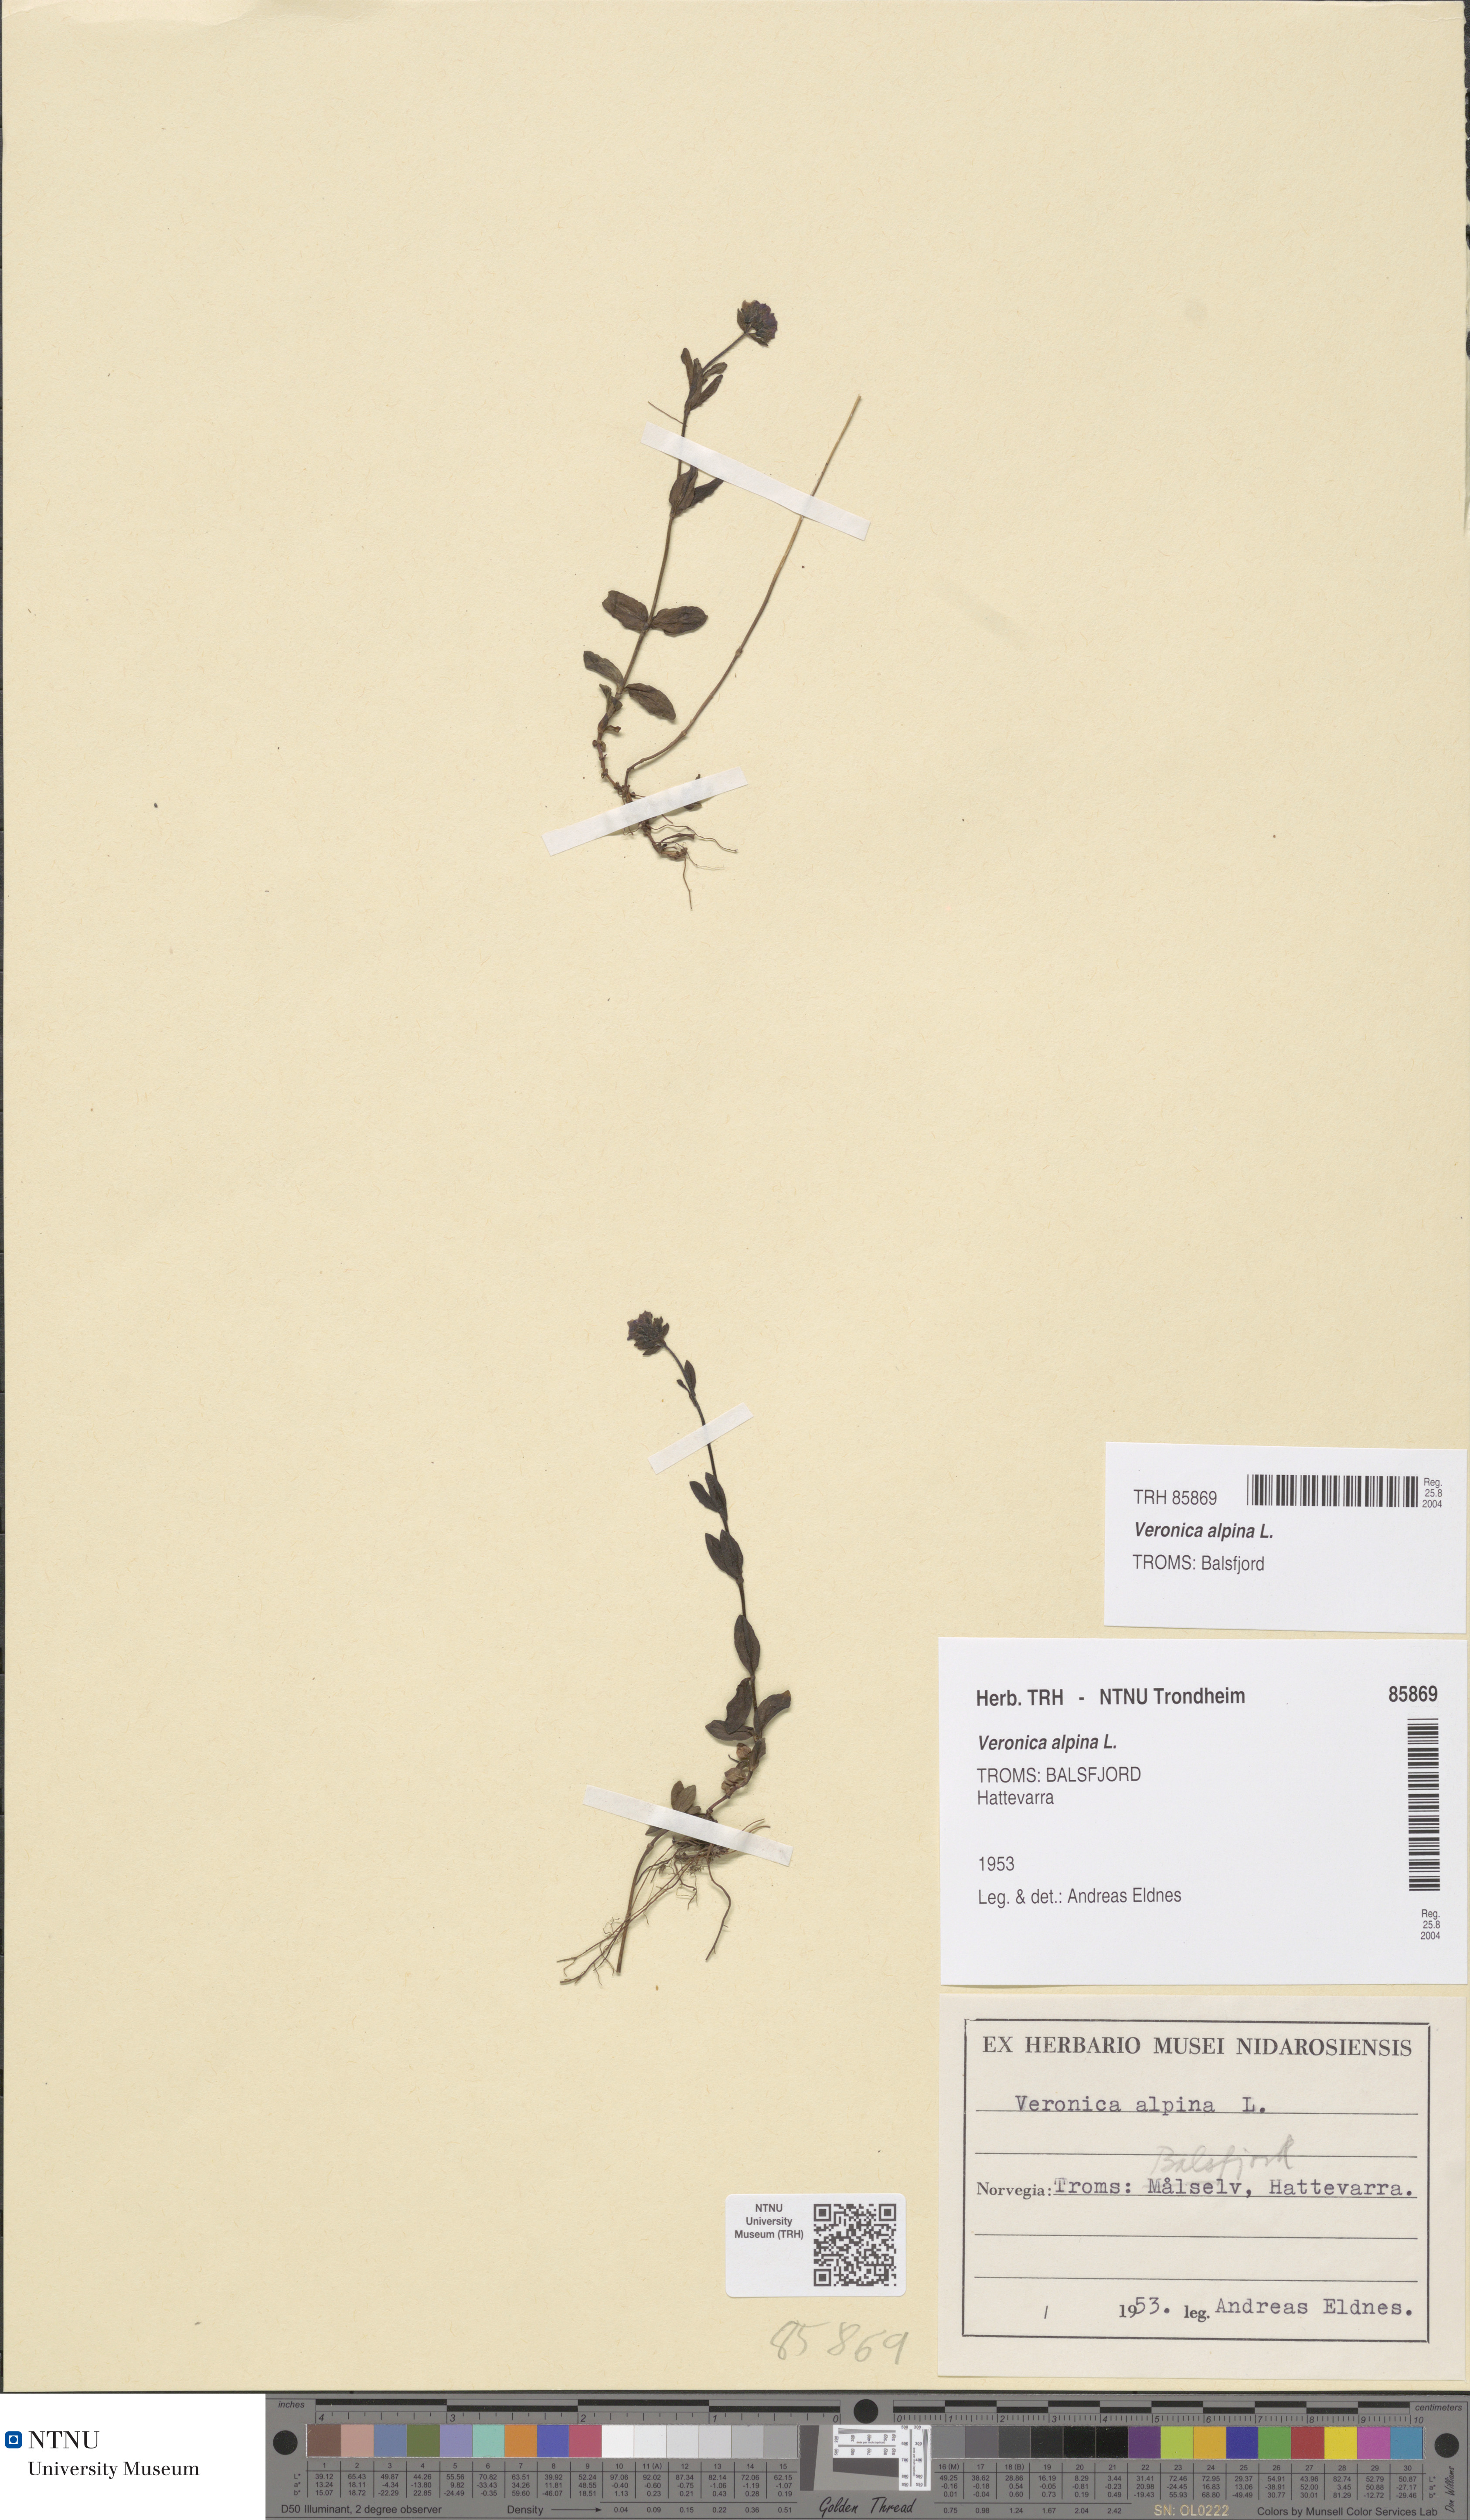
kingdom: Plantae
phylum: Tracheophyta
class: Magnoliopsida
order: Lamiales
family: Plantaginaceae
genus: Veronica
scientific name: Veronica alpina
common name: Alpine speedwell
